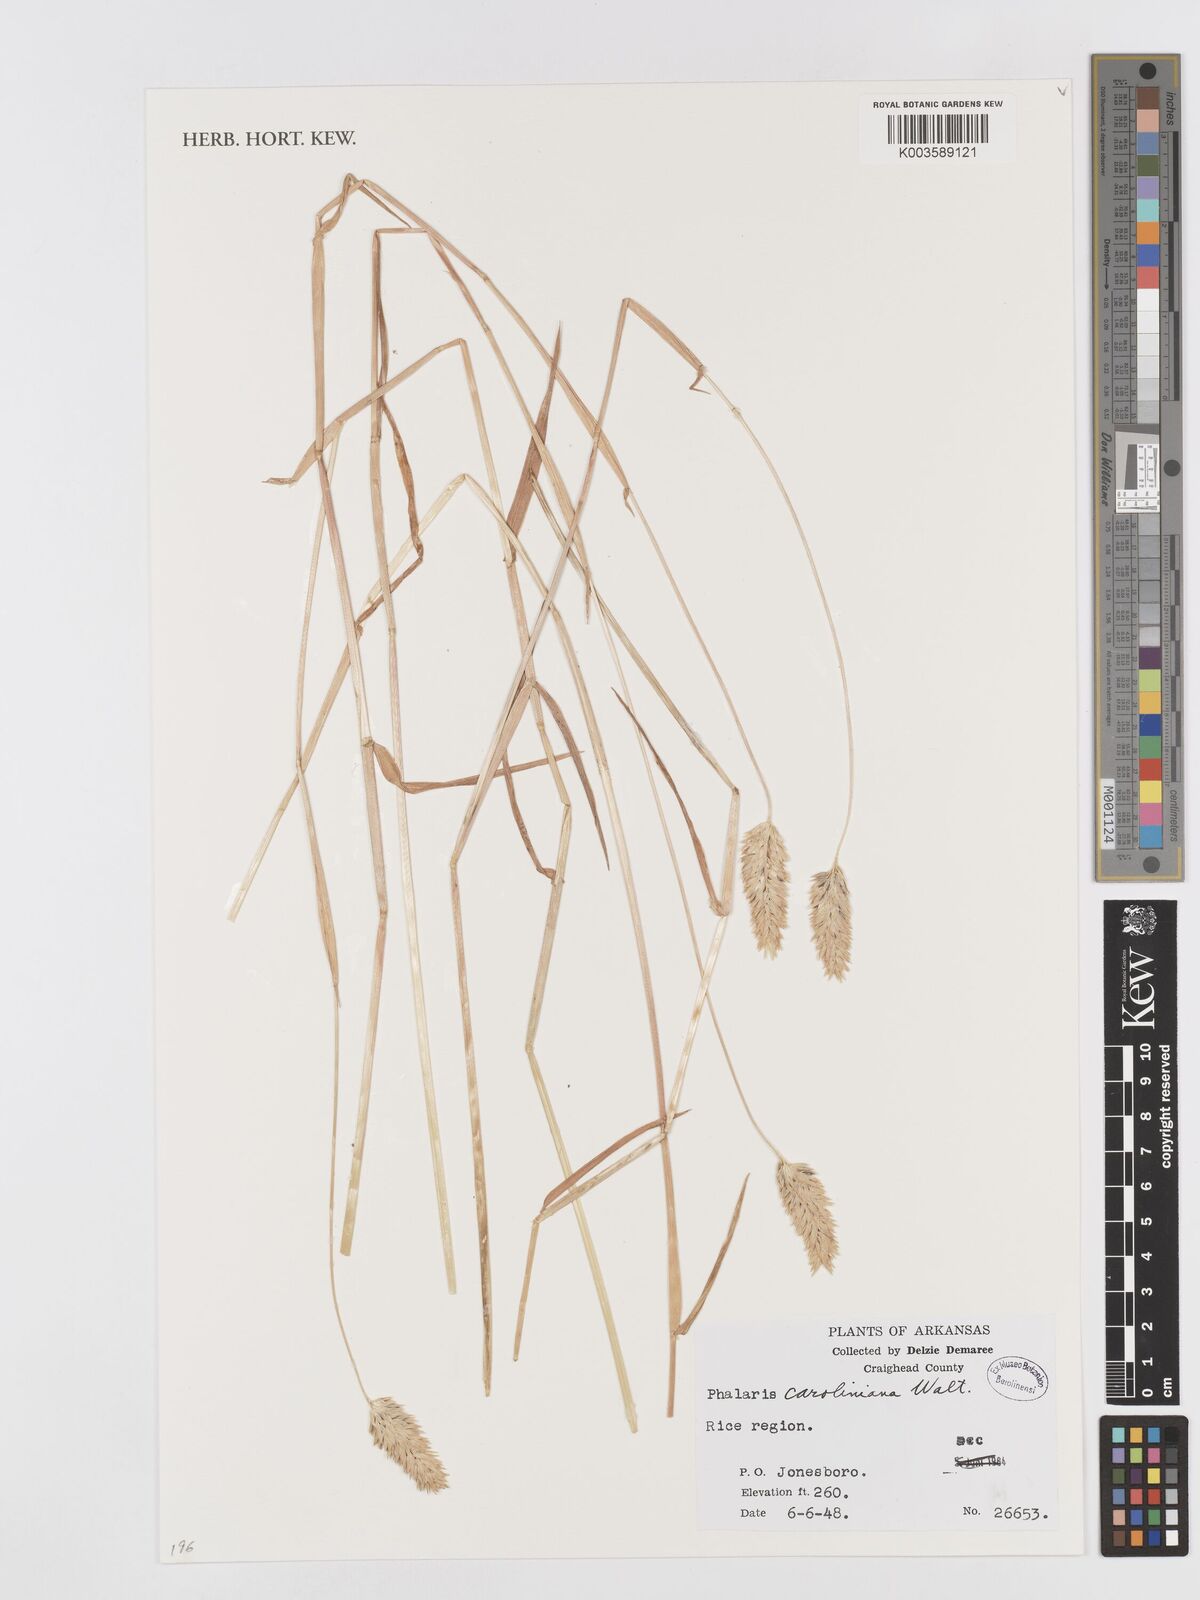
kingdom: Plantae
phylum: Tracheophyta
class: Liliopsida
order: Poales
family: Poaceae
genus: Phalaris
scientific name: Phalaris caroliniana
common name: May grass
